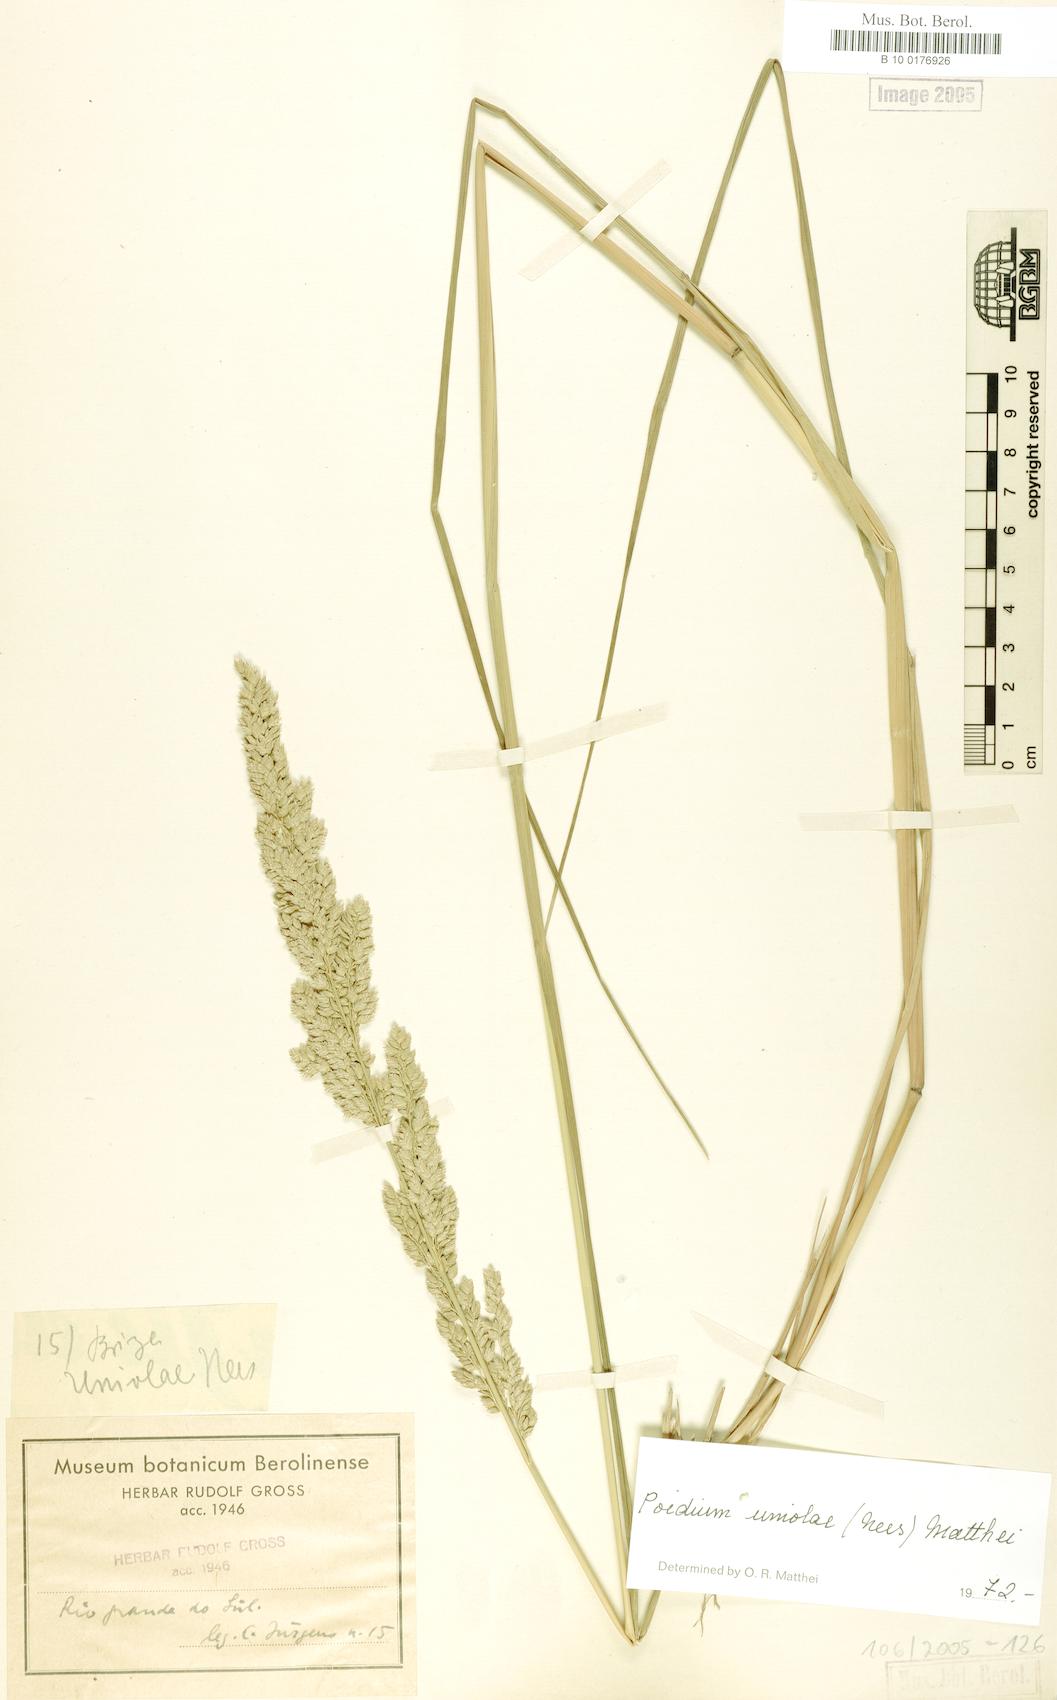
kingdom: Plantae
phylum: Tracheophyta
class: Liliopsida
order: Poales
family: Poaceae
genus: Poidium
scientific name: Poidium uniolae
